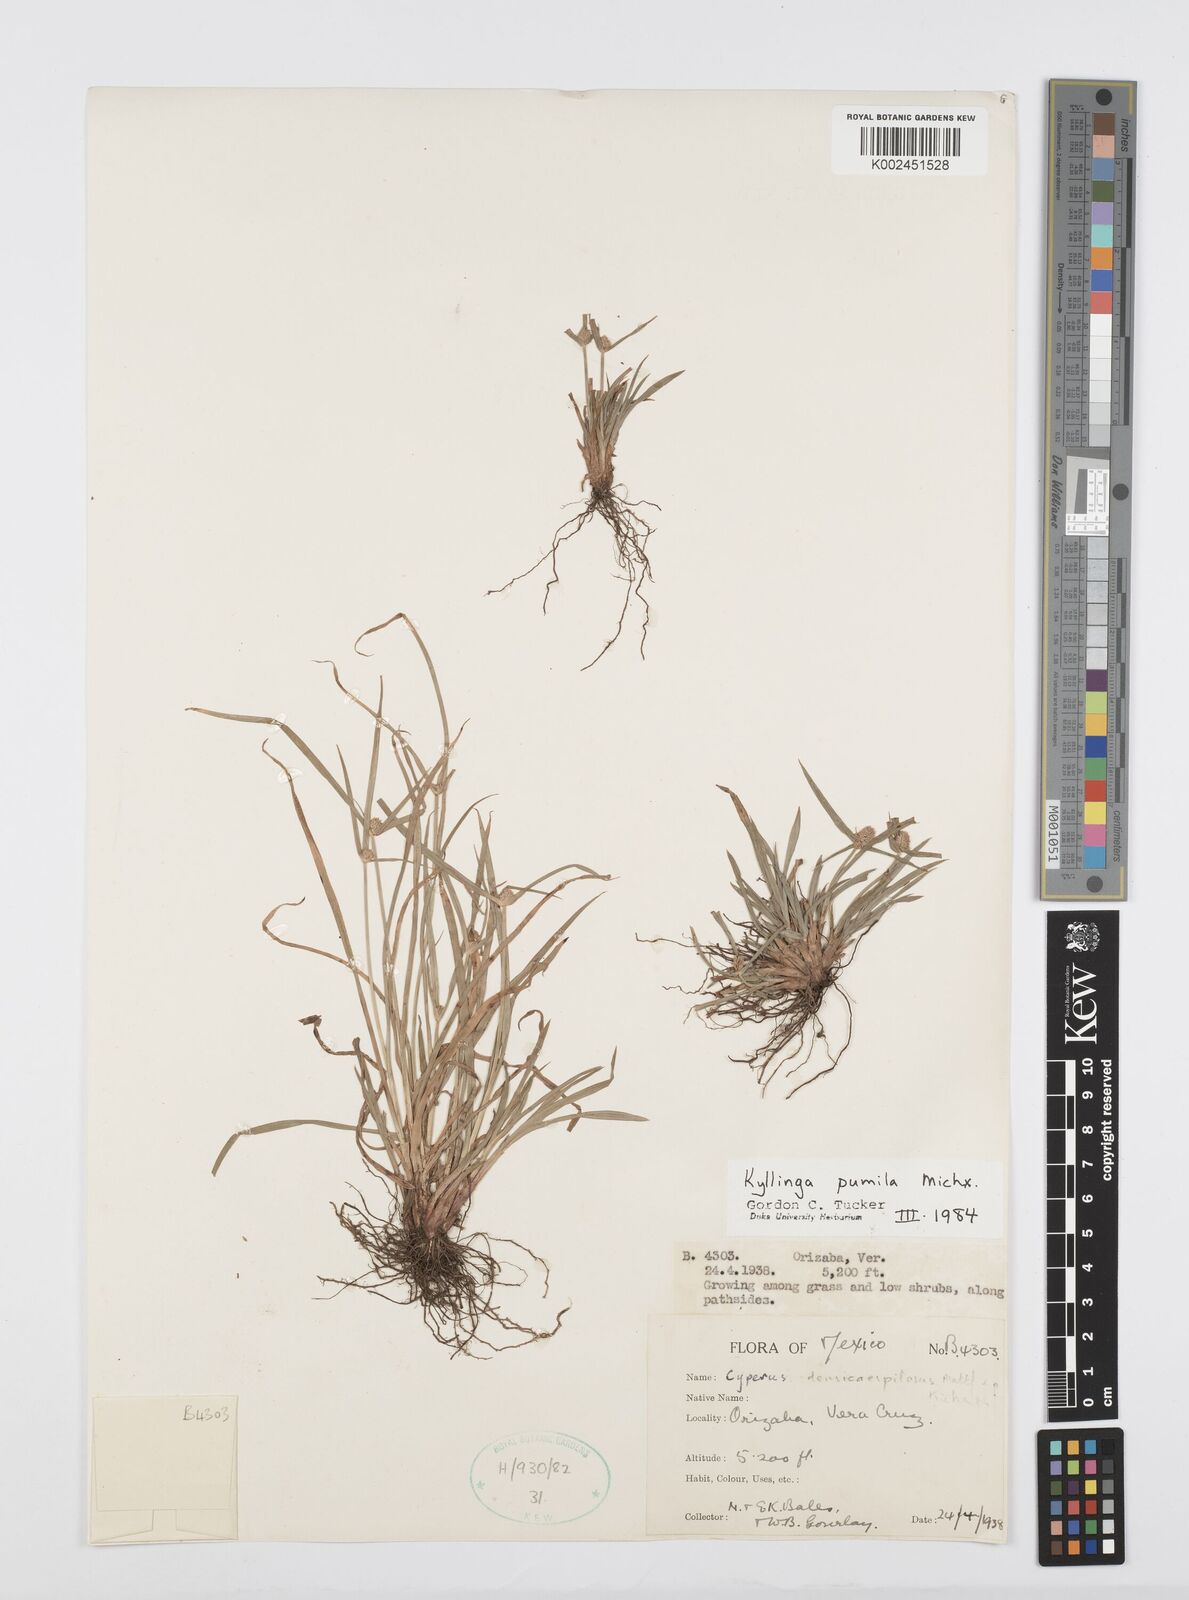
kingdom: Plantae
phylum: Tracheophyta
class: Liliopsida
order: Poales
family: Cyperaceae
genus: Cyperus
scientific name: Cyperus hortensis
